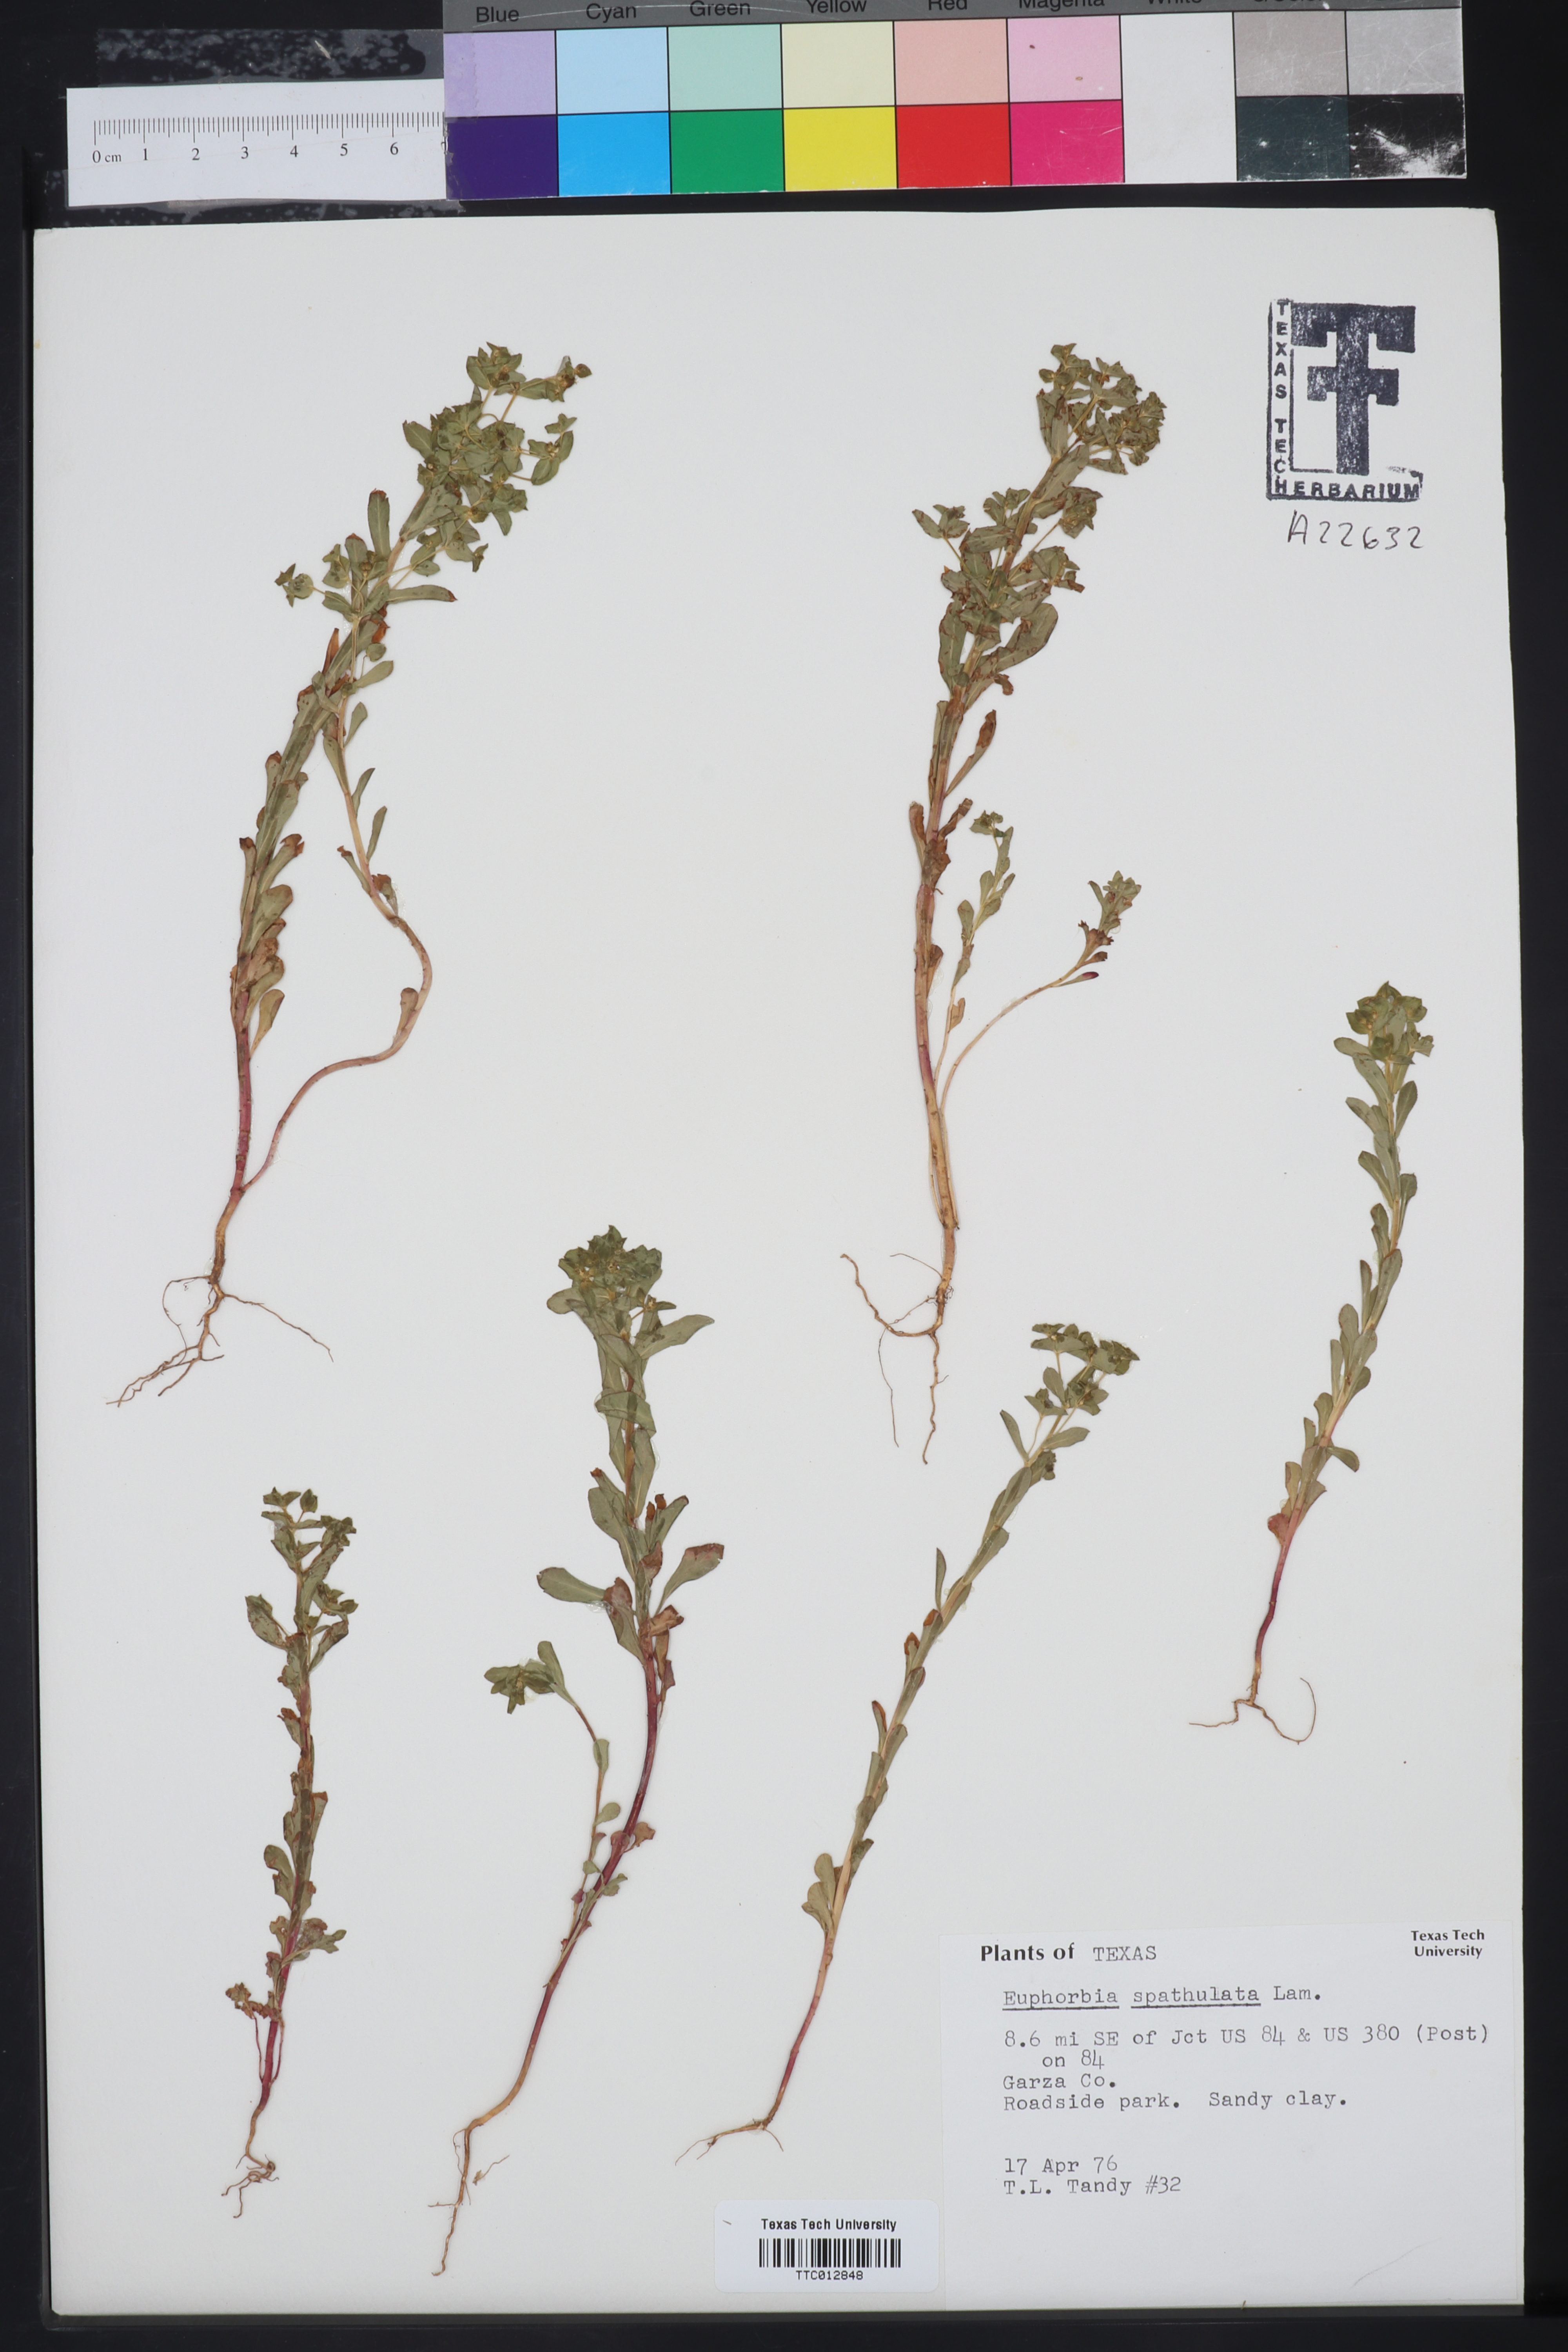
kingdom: Plantae
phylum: Tracheophyta
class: Magnoliopsida
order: Malpighiales
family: Euphorbiaceae
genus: Euphorbia
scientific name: Euphorbia spathulata
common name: Blunt spurge
